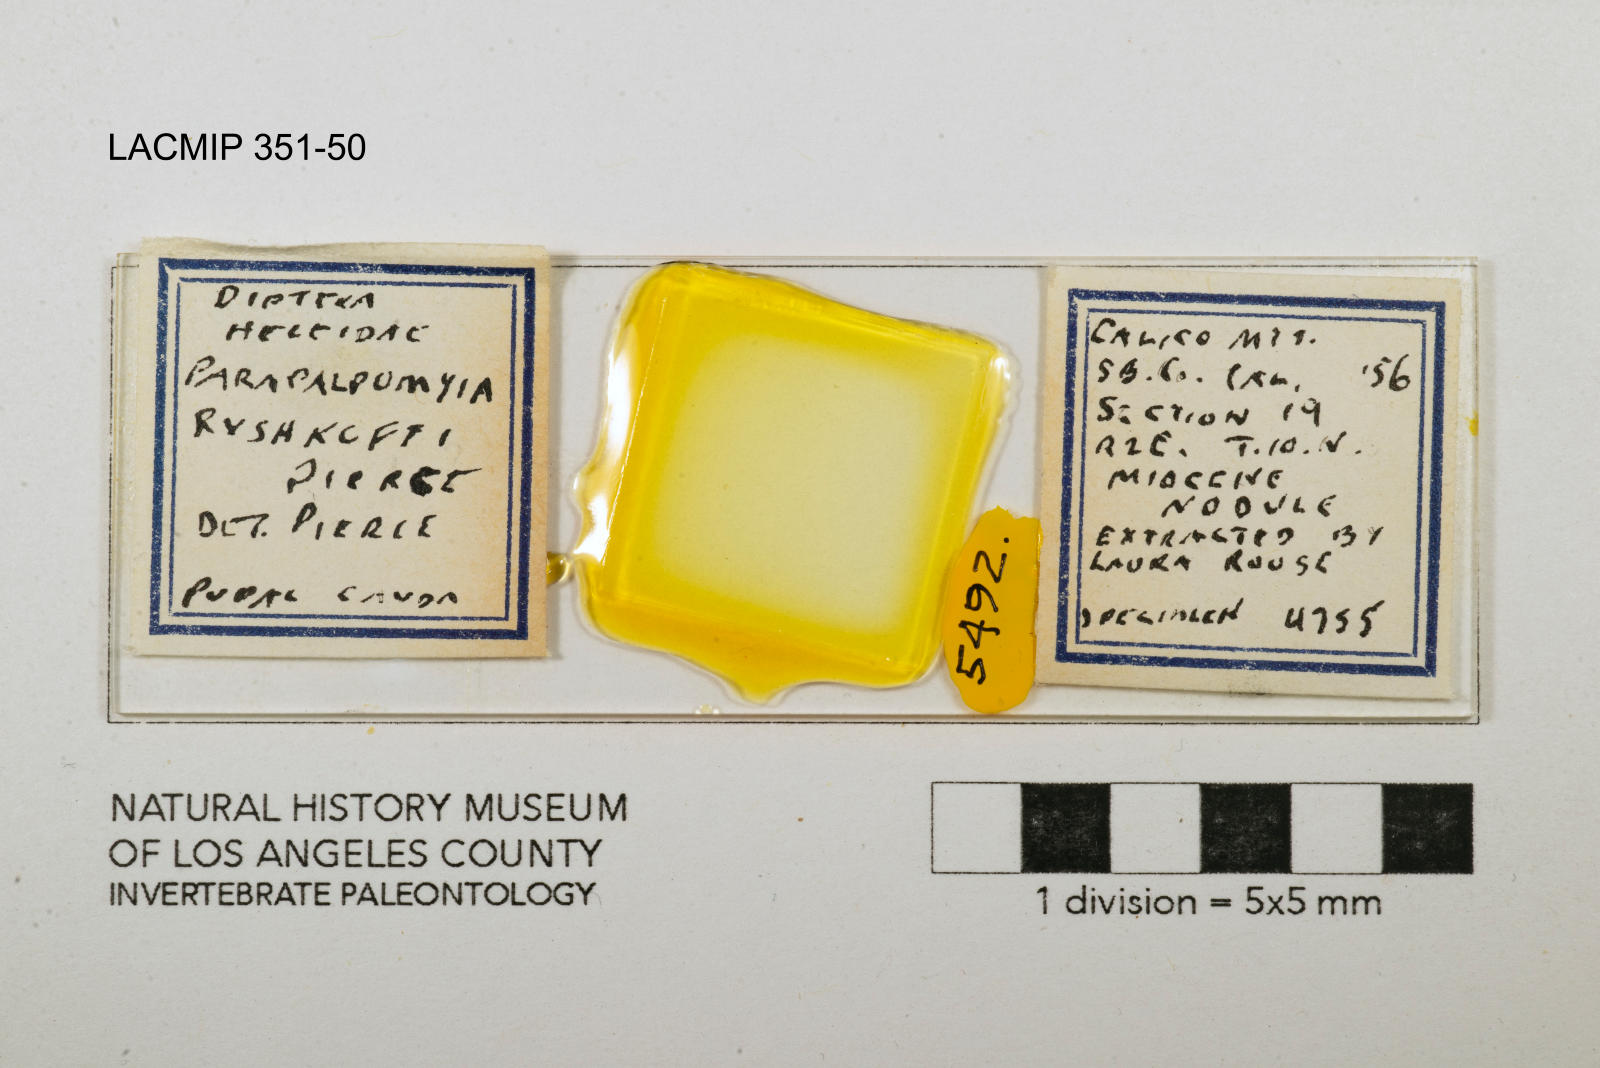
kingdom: Animalia
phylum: Arthropoda
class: Insecta
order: Diptera
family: Ceratopogonidae
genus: Palpomyia
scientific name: Palpomyia ryshkoffi
